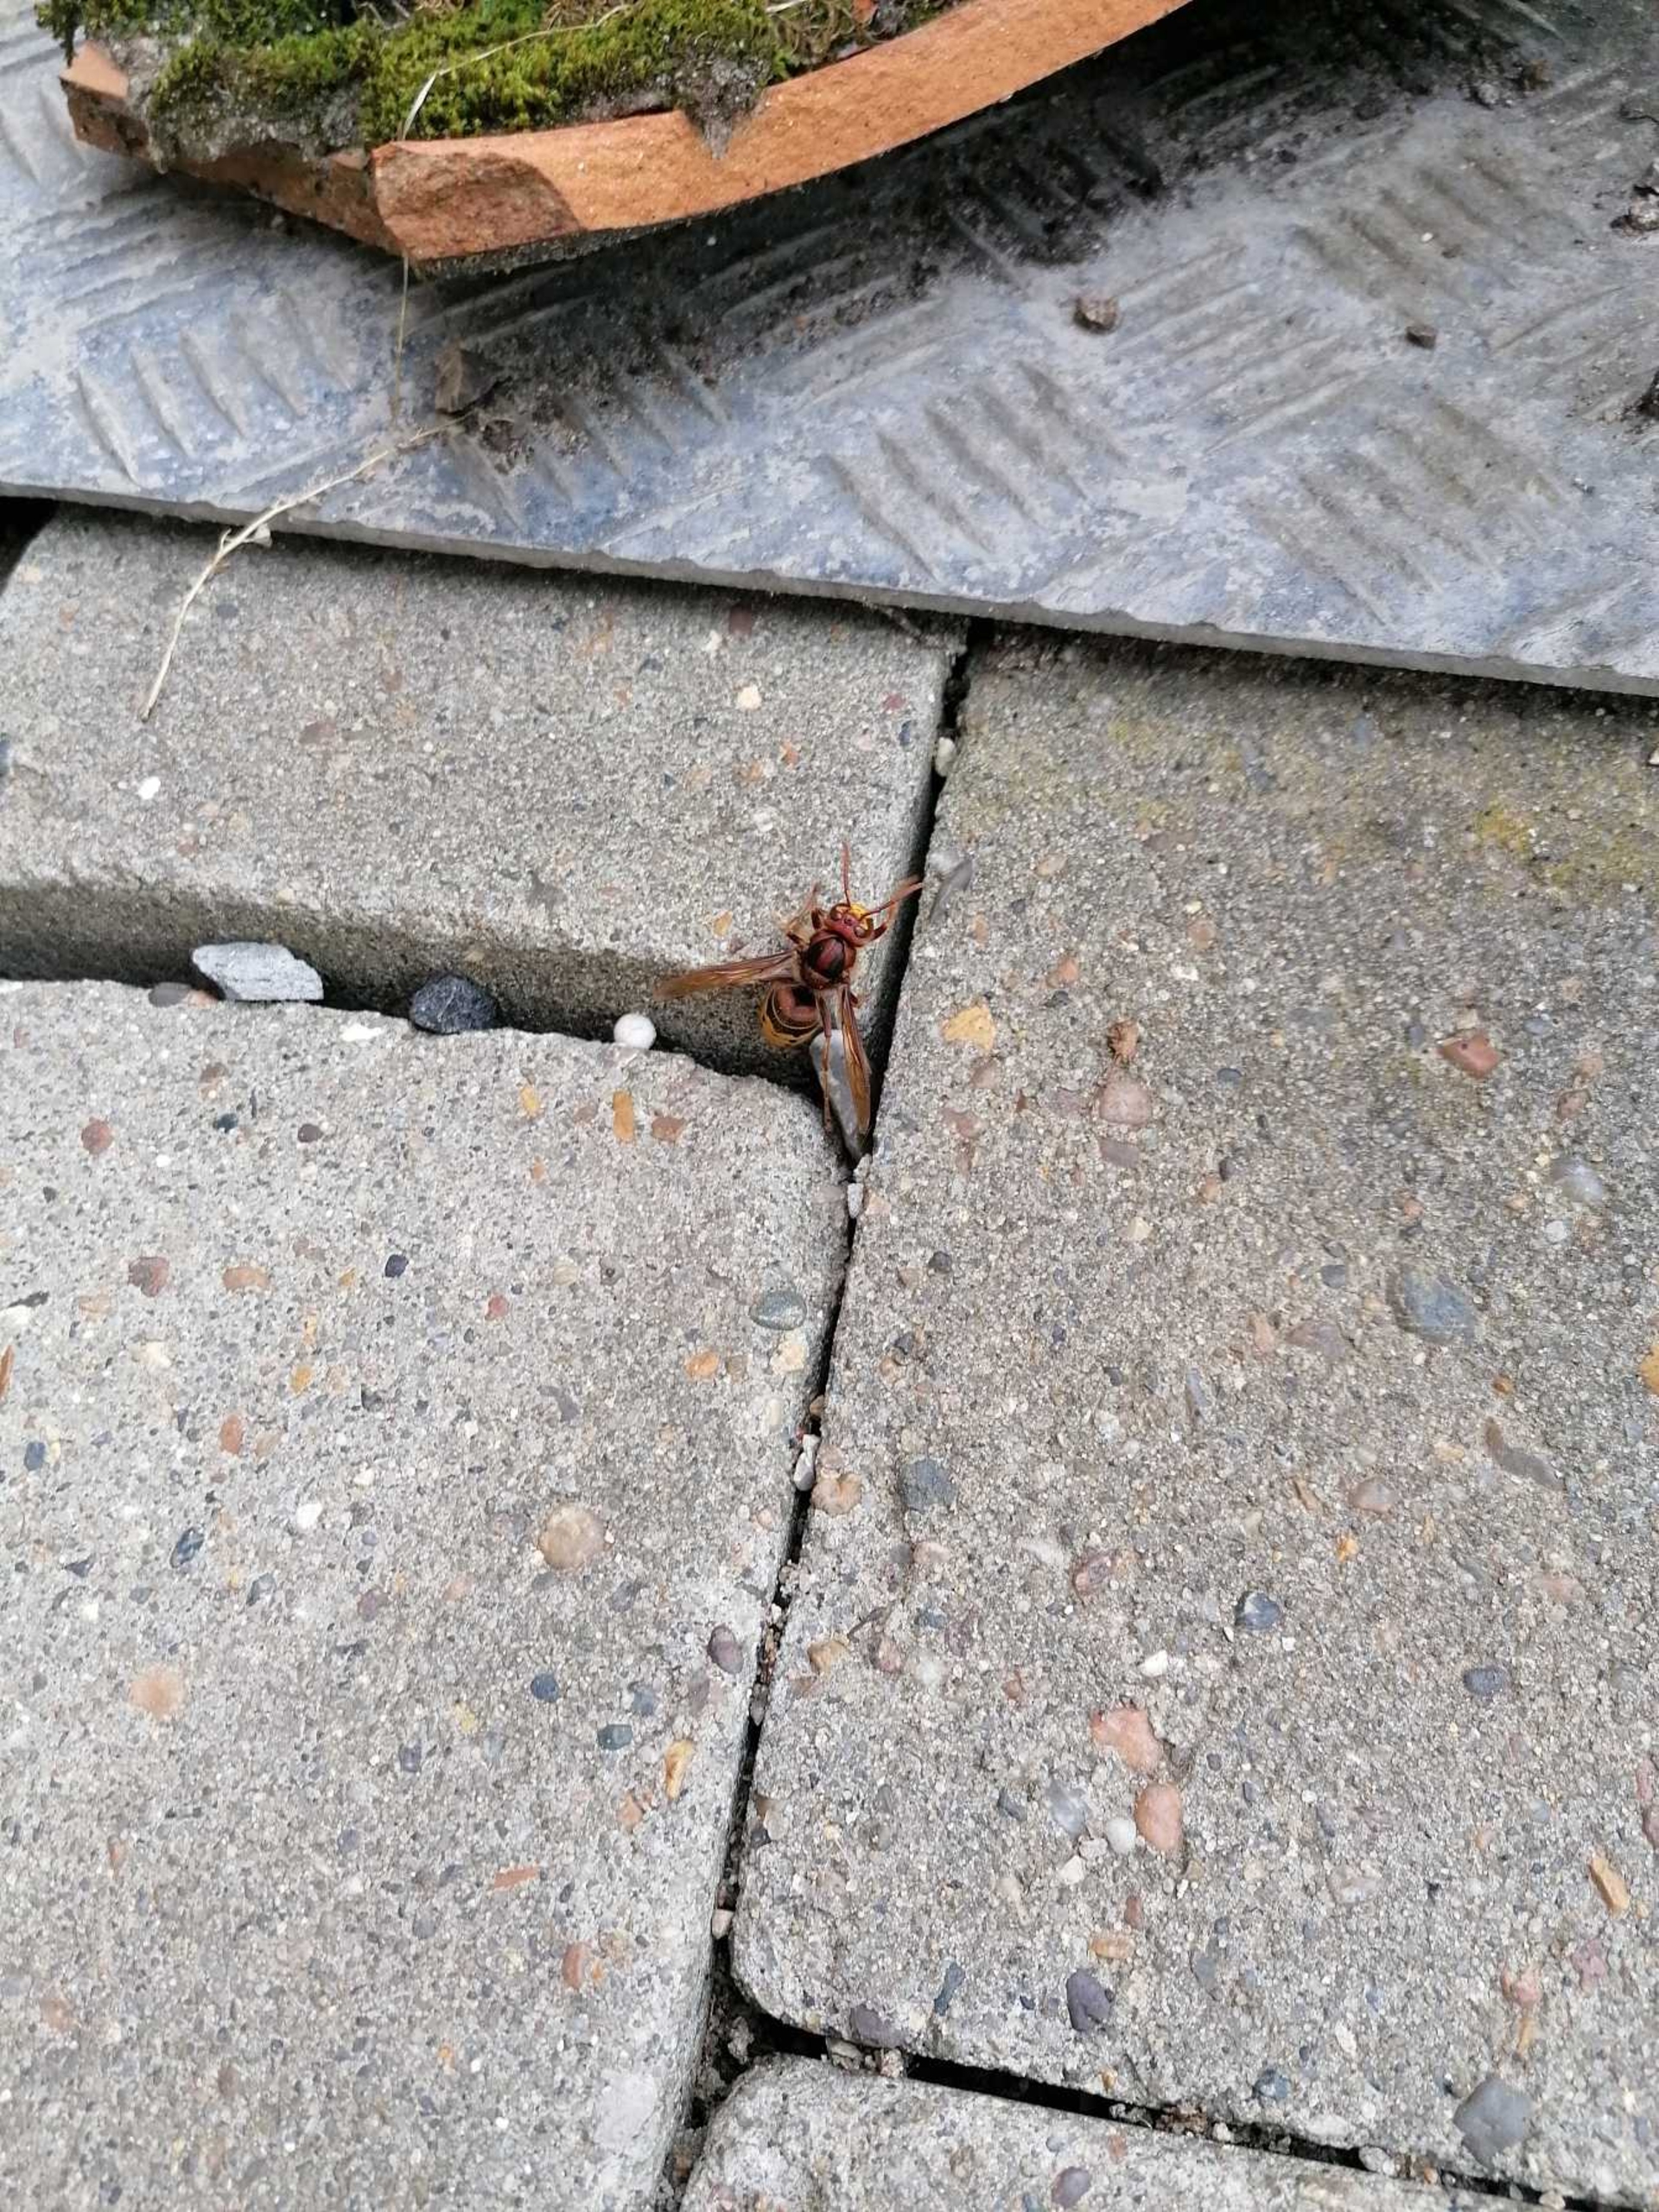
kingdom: Animalia
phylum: Arthropoda
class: Insecta
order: Hymenoptera
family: Vespidae
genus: Vespa
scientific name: Vespa crabro
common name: Stor gedehams
